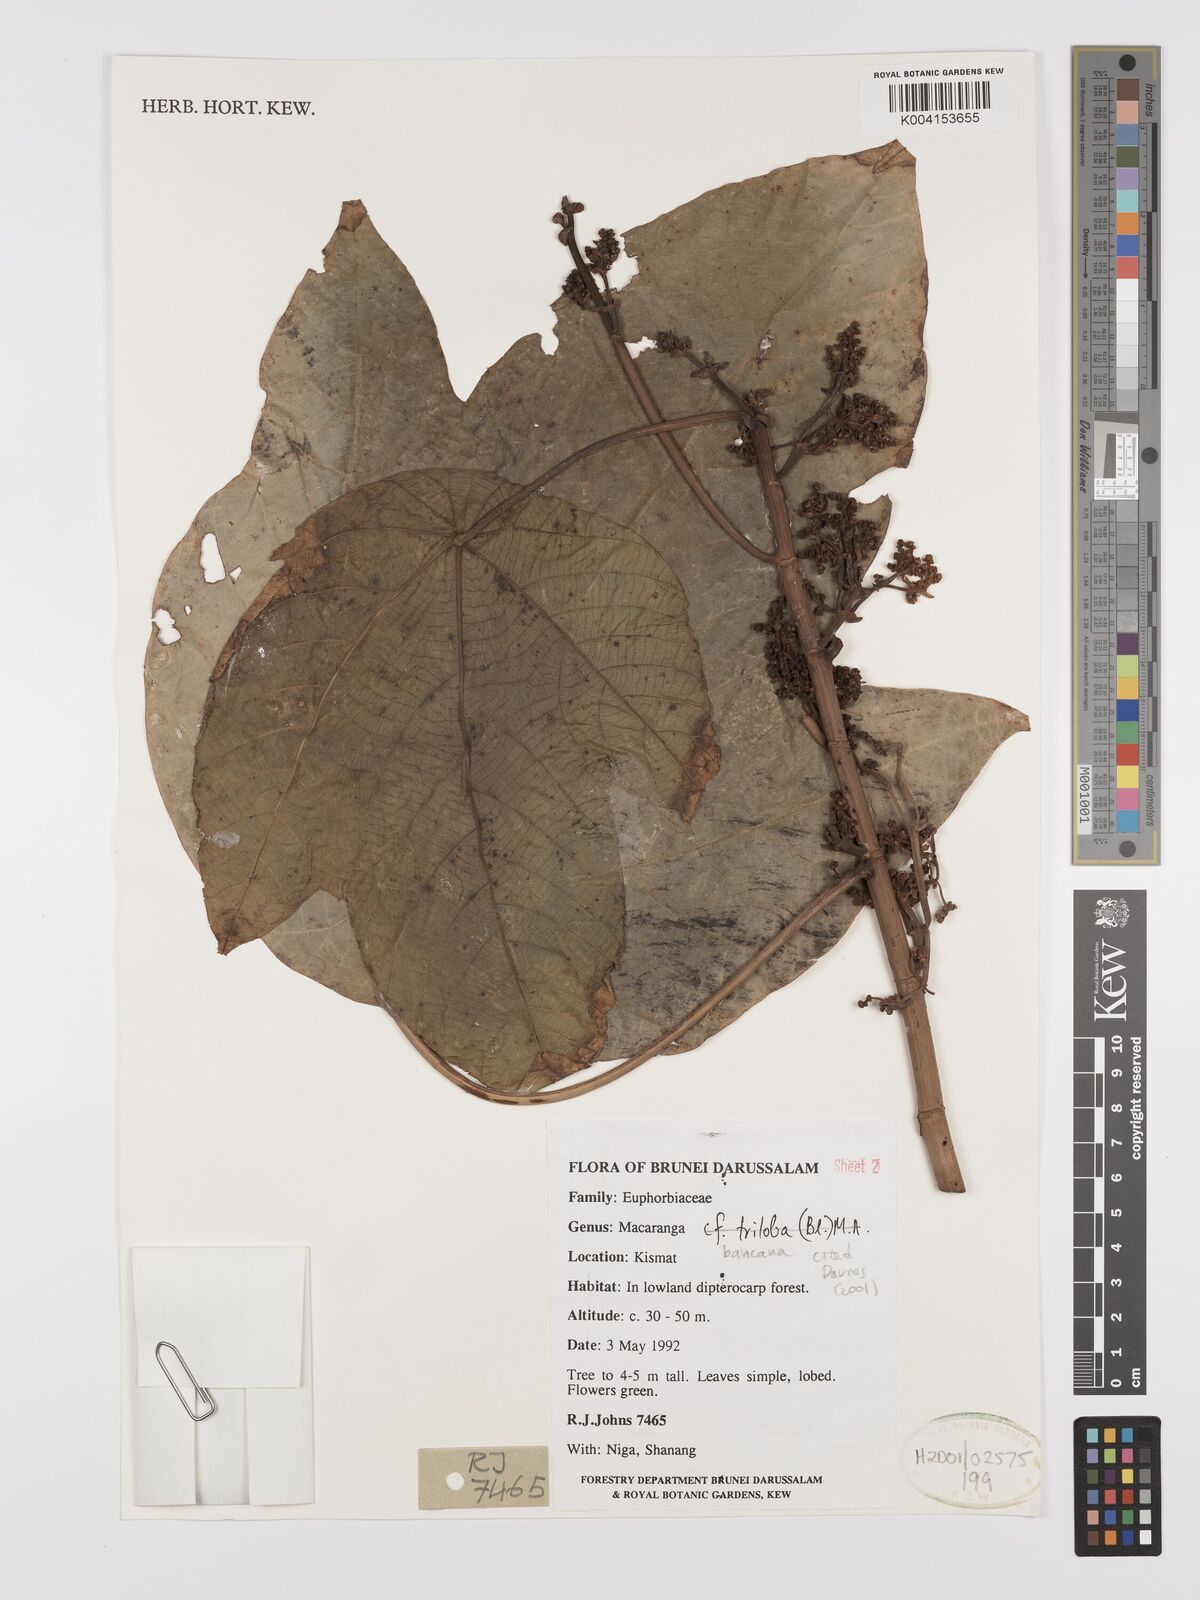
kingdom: Plantae
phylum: Tracheophyta
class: Magnoliopsida
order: Malpighiales
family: Euphorbiaceae
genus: Macaranga
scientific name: Macaranga triloba
